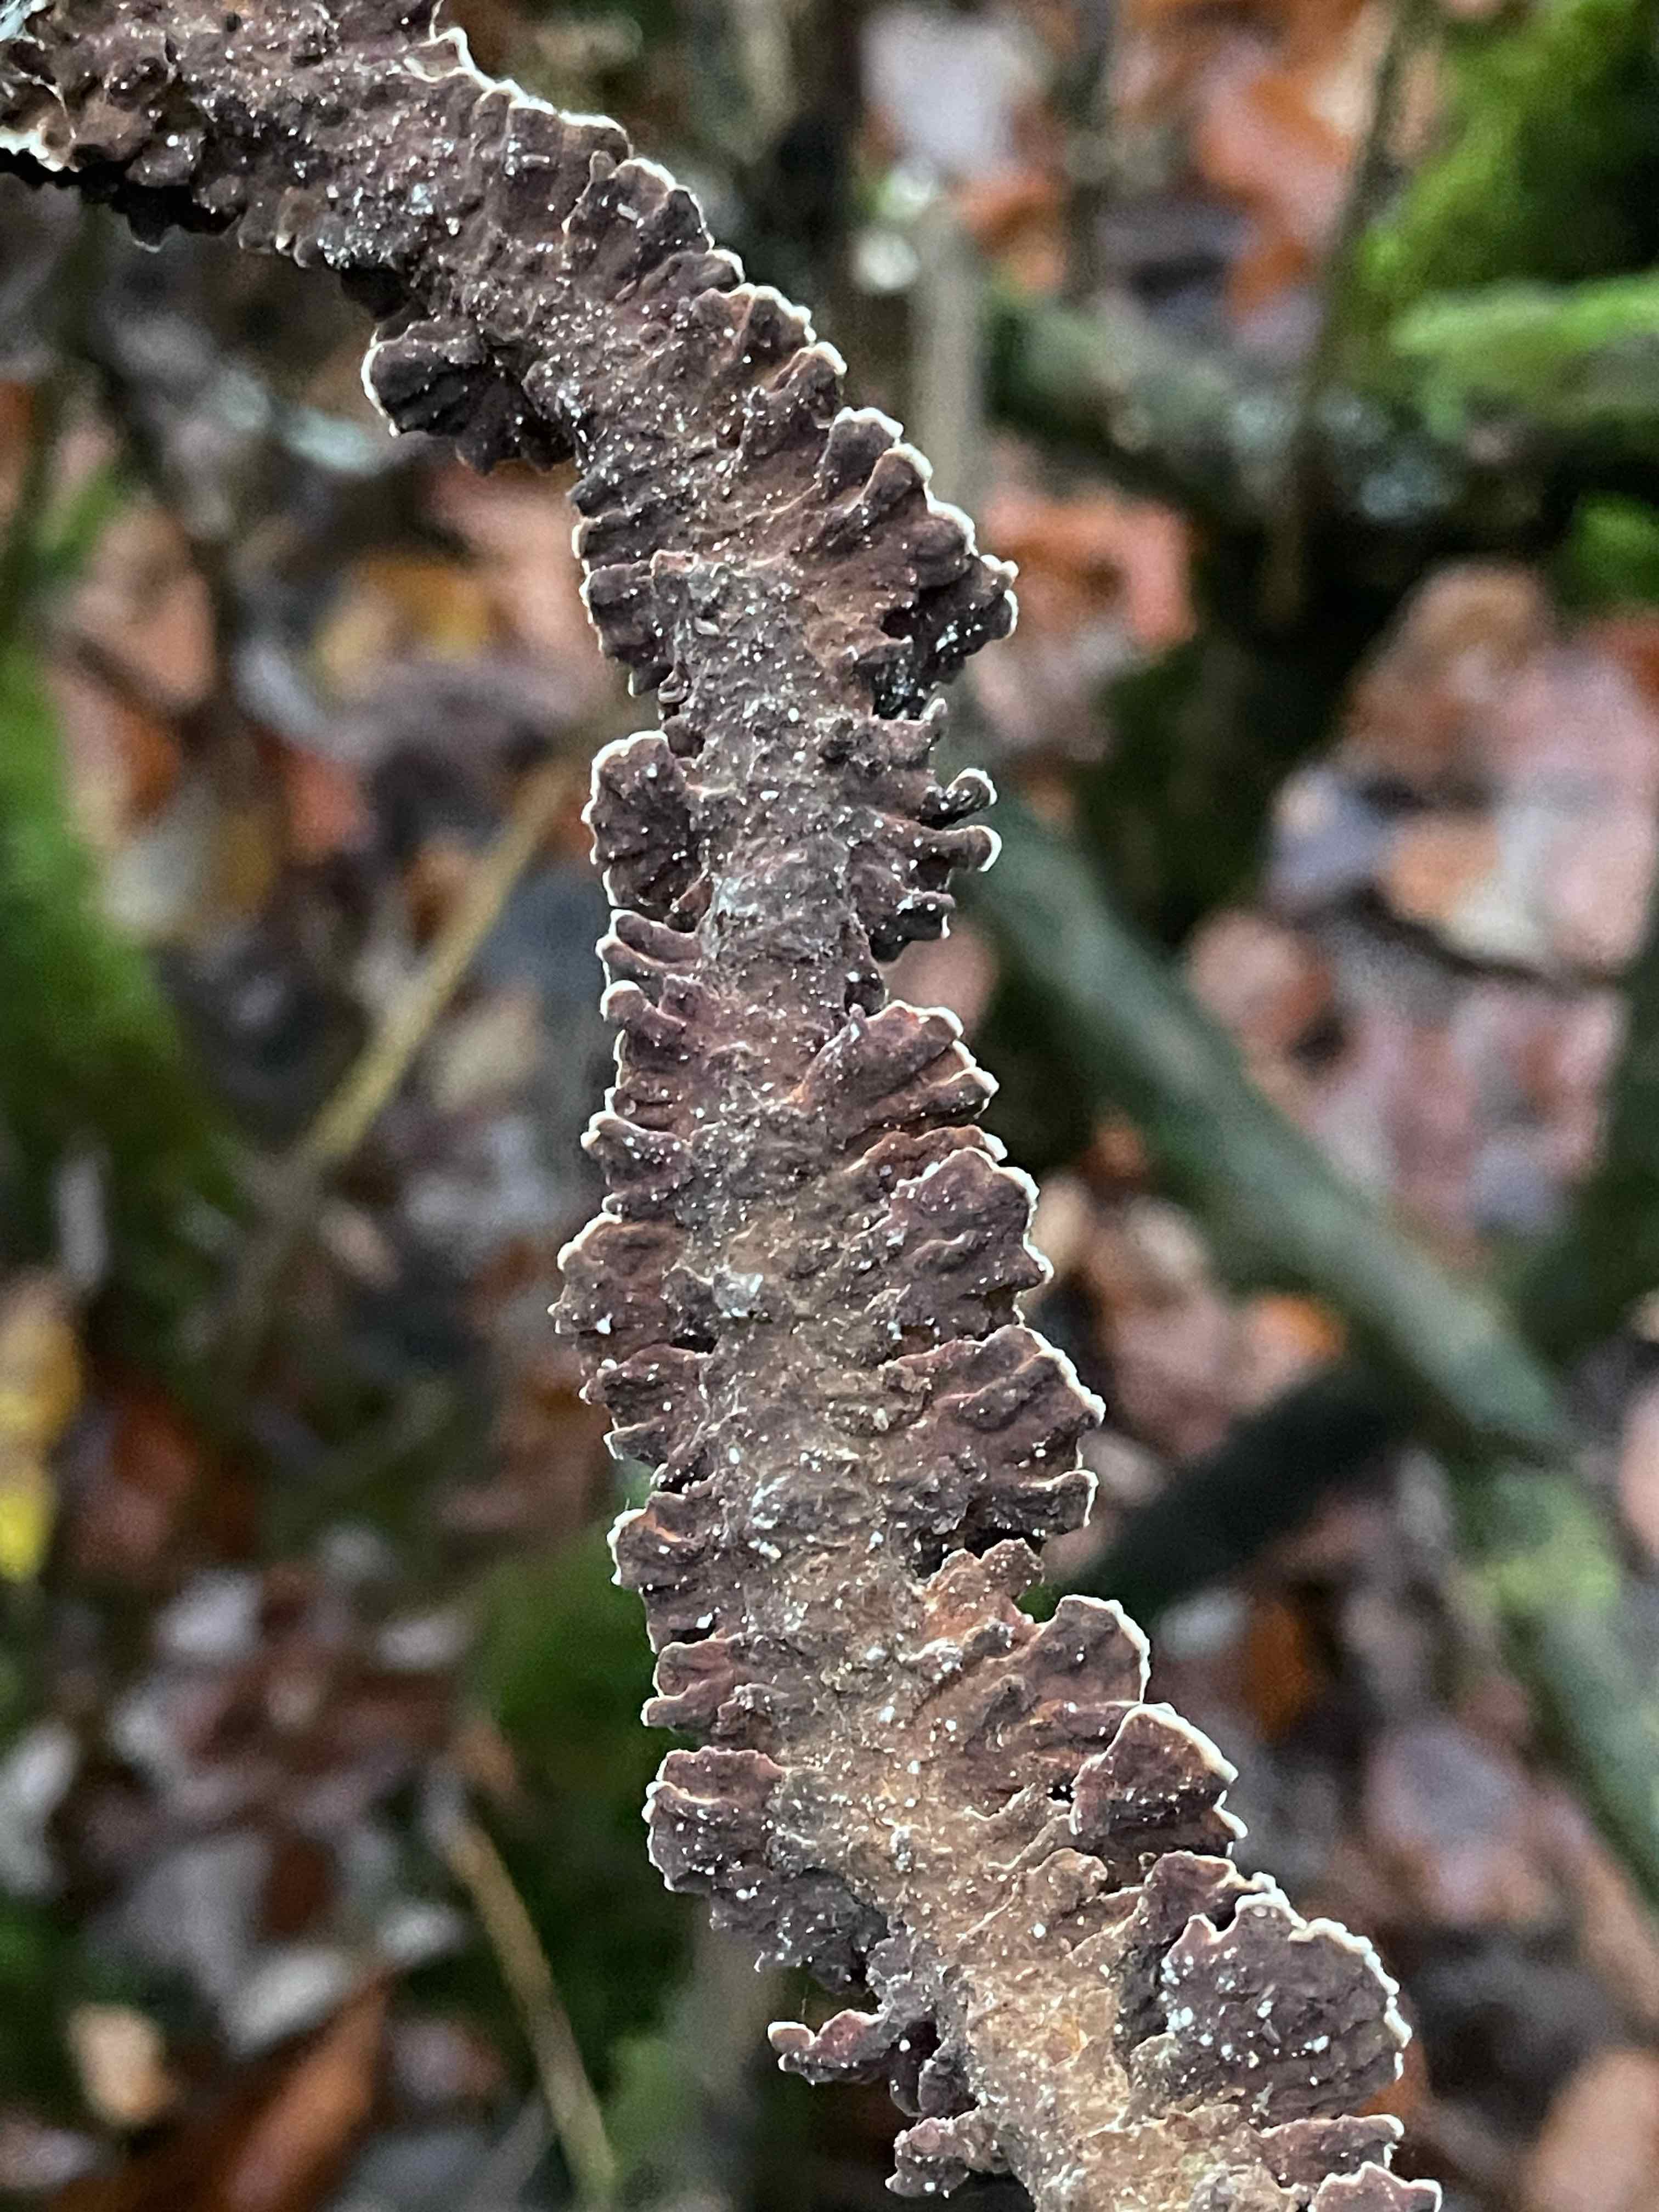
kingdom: Fungi
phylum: Basidiomycota
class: Agaricomycetes
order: Hymenochaetales
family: Hymenochaetaceae
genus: Hydnoporia
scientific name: Hydnoporia tabacina
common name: tobaksbrun ruslædersvamp
